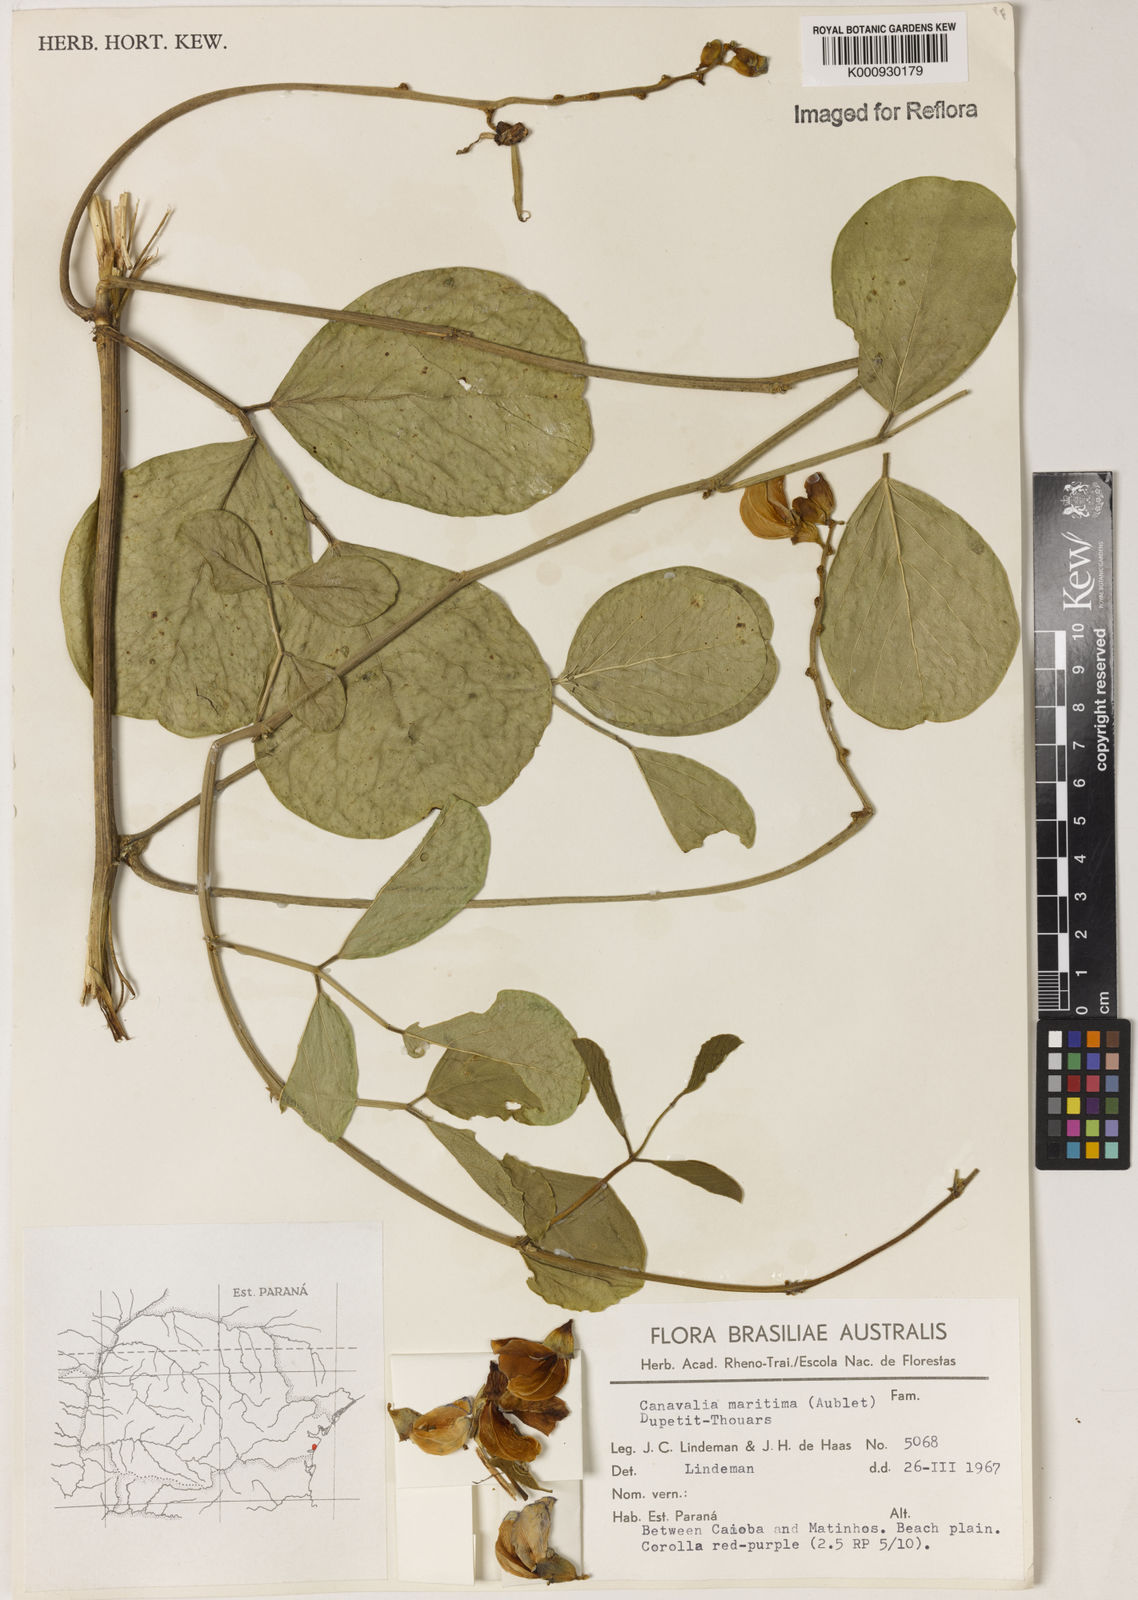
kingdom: Plantae
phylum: Tracheophyta
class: Magnoliopsida
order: Fabales
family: Fabaceae
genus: Canavalia
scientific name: Canavalia rosea
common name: Beach-bean
